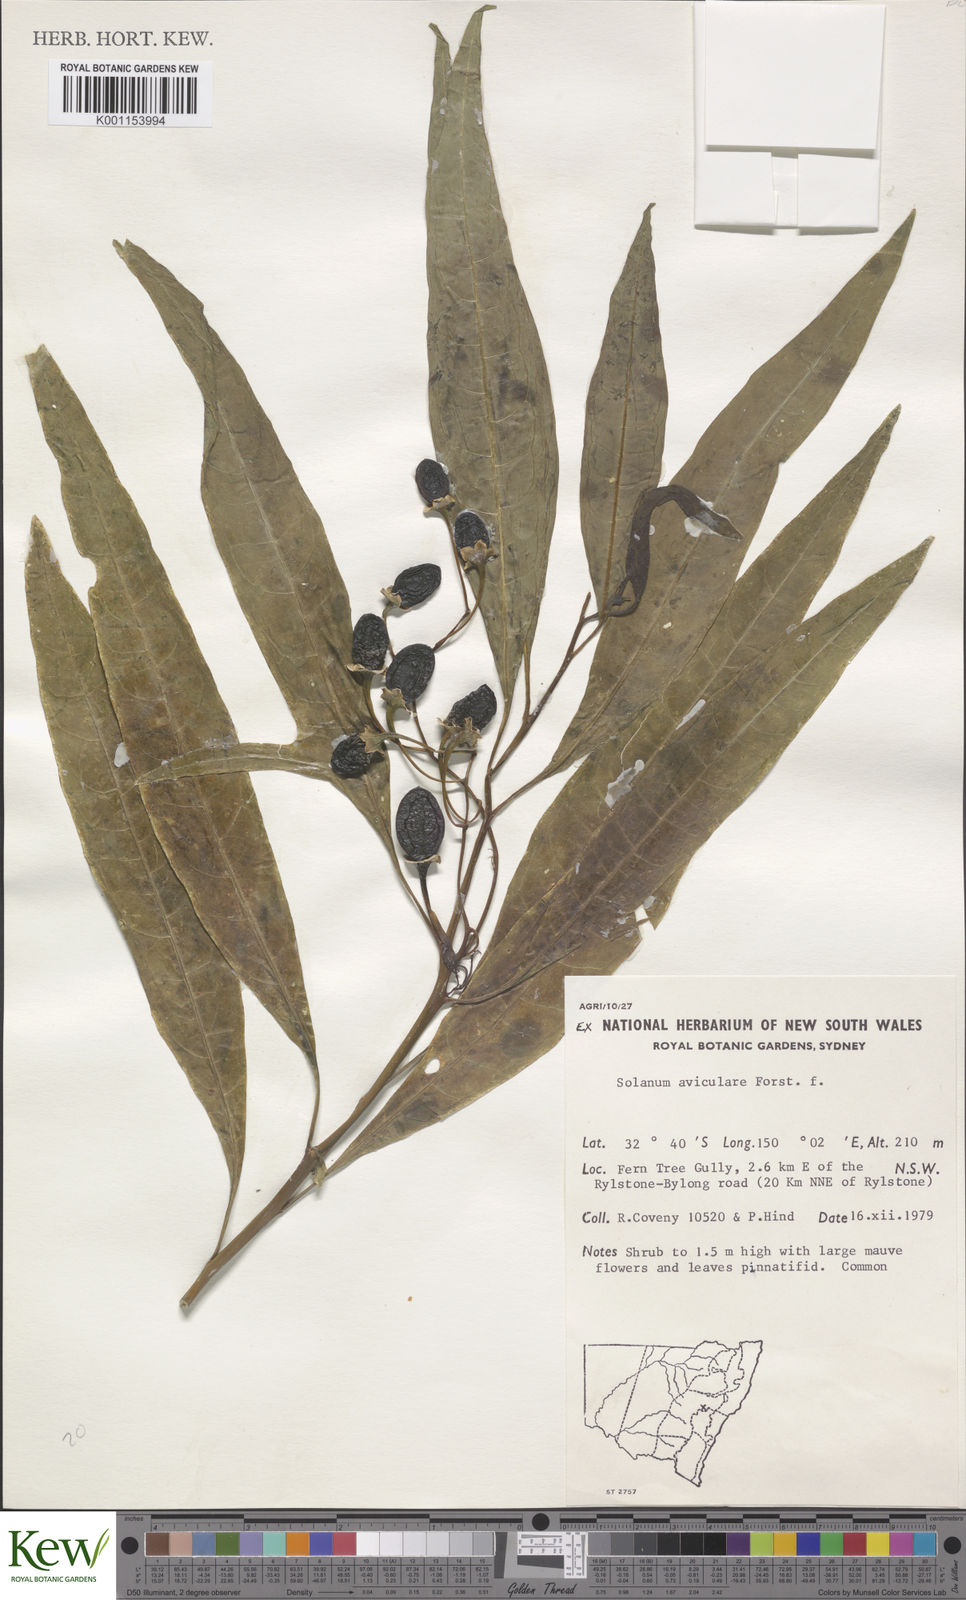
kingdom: Plantae
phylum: Tracheophyta
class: Magnoliopsida
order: Solanales
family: Solanaceae
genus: Solanum
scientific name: Solanum aviculare
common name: New zealand nightshade
